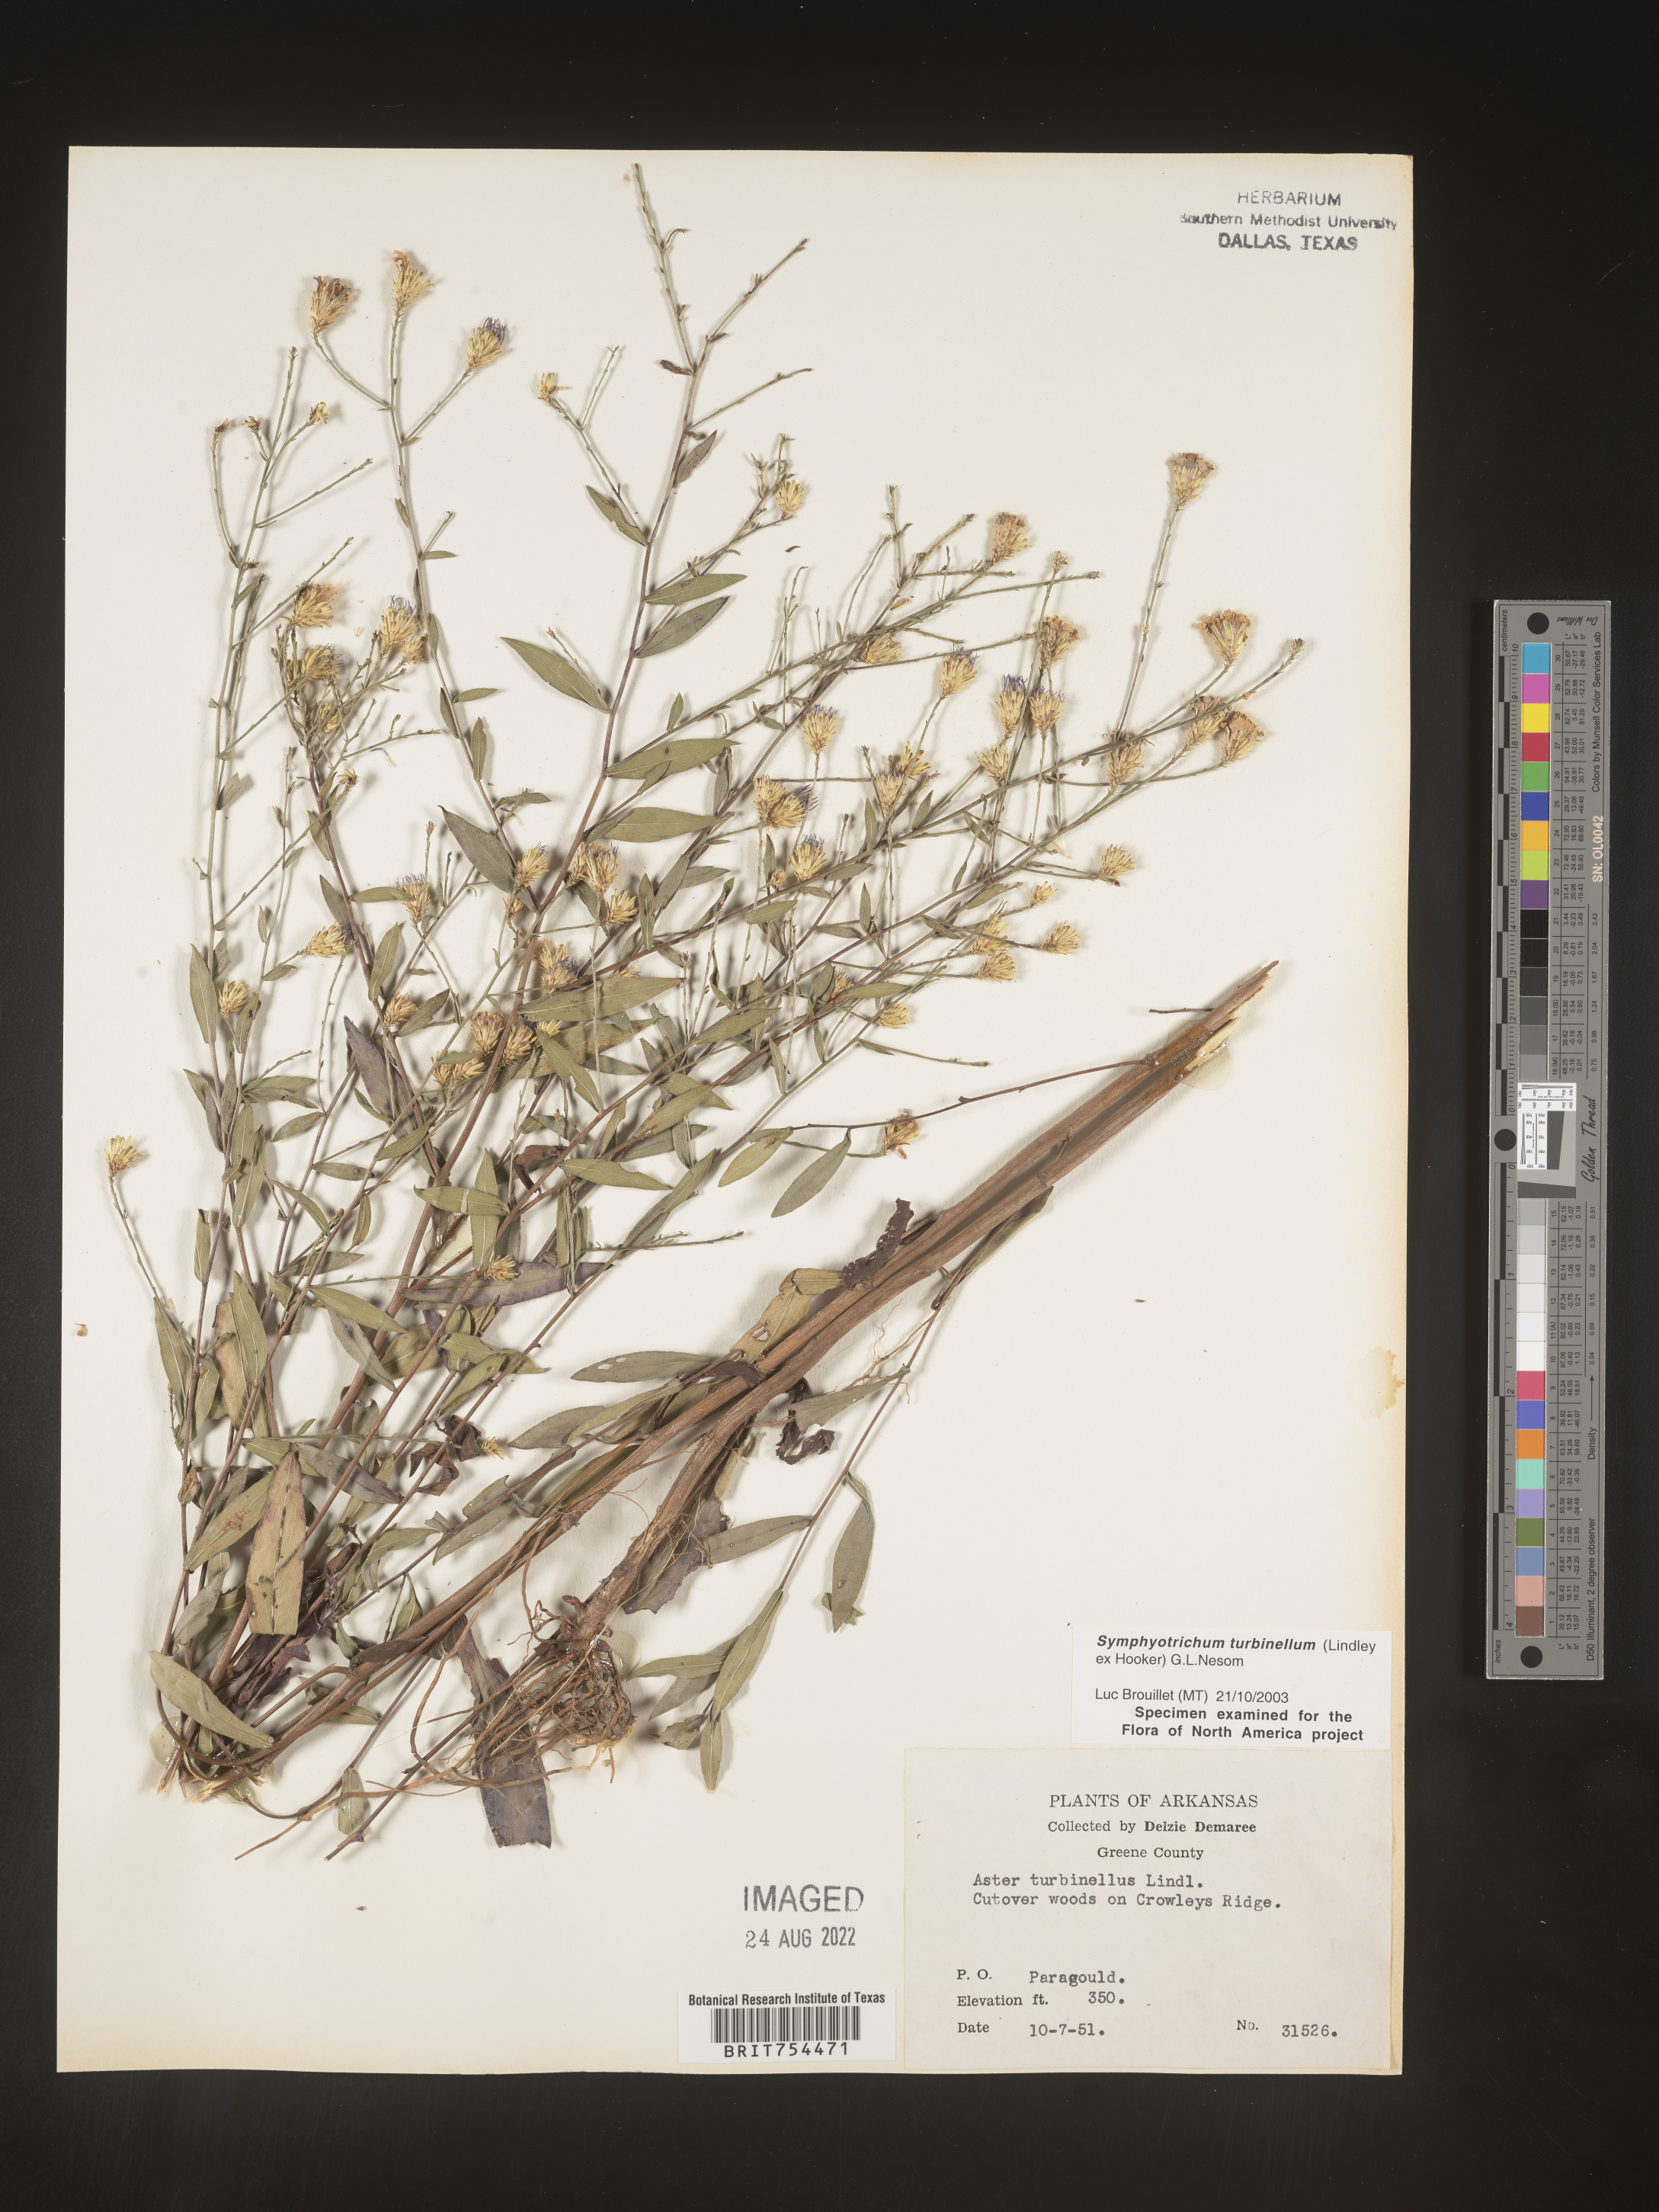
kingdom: Plantae
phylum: Tracheophyta
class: Magnoliopsida
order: Asterales
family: Asteraceae
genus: Symphyotrichum
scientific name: Symphyotrichum turbinellum
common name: Prairie aster
